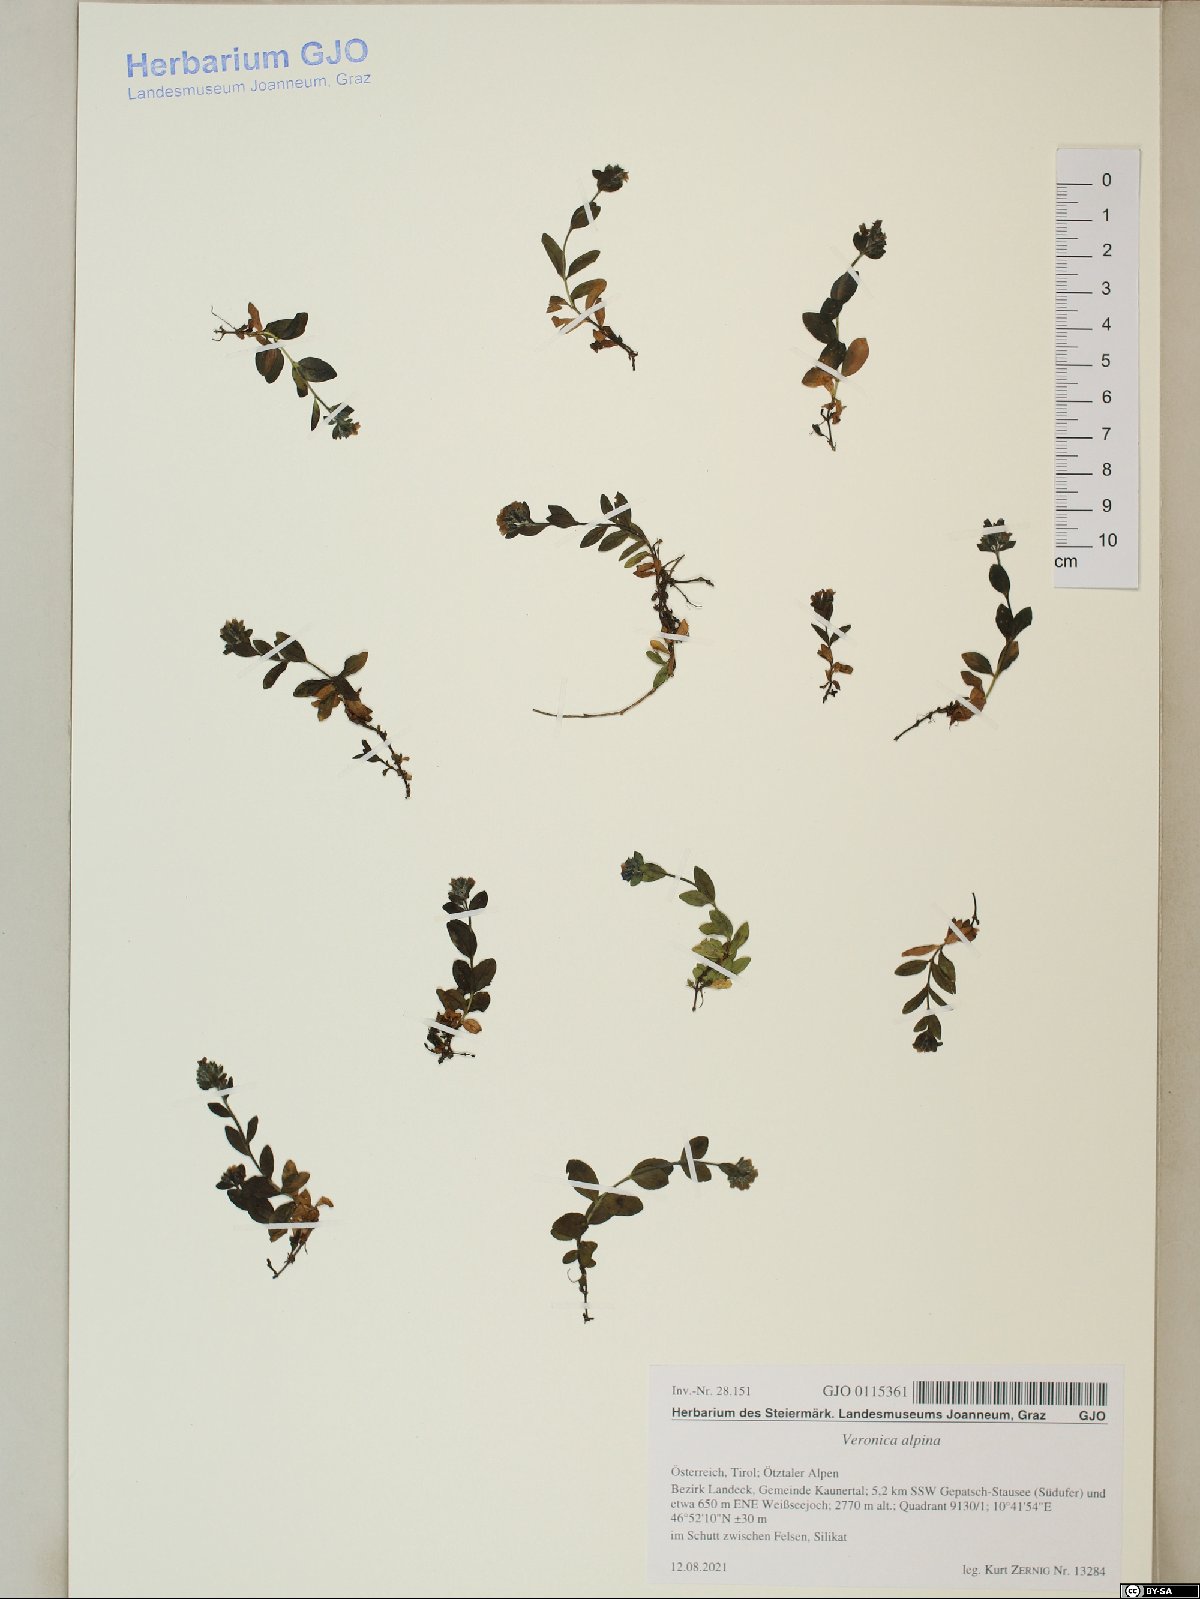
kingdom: Plantae
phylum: Tracheophyta
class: Magnoliopsida
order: Lamiales
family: Plantaginaceae
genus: Veronica
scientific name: Veronica alpina
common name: Alpine speedwell
